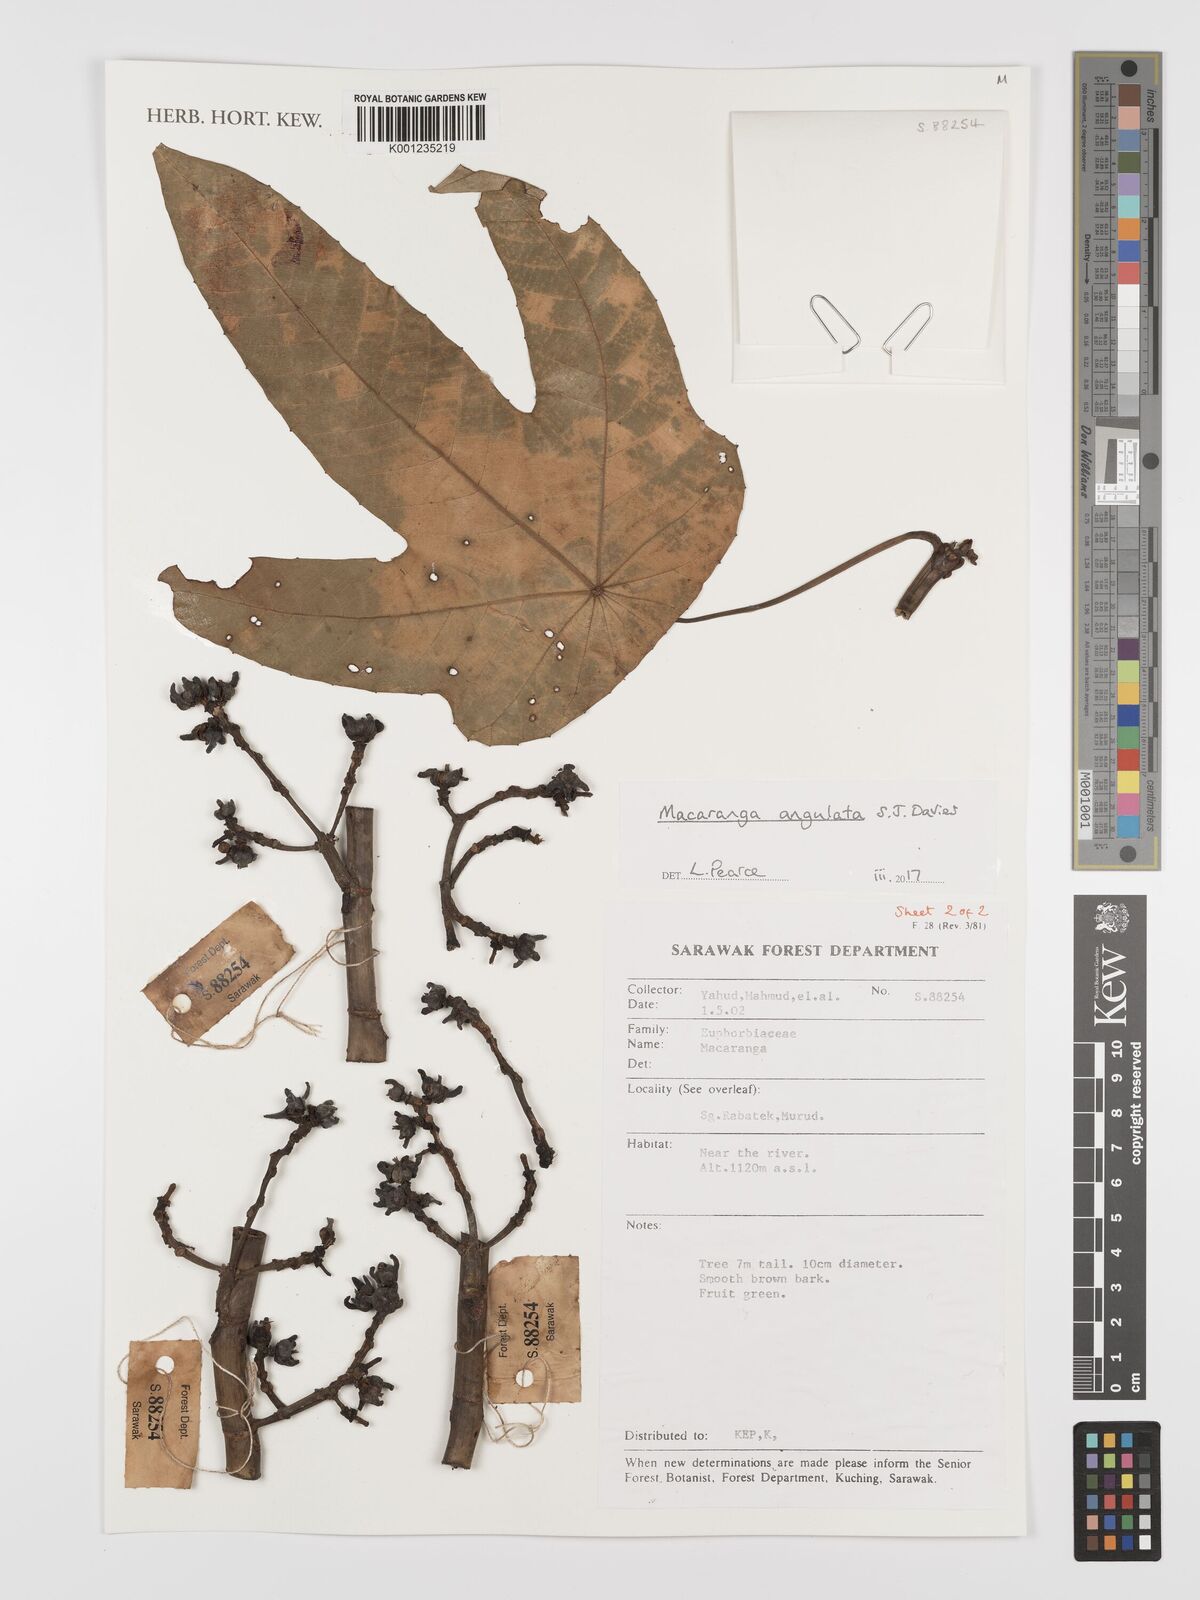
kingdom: Plantae
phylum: Tracheophyta
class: Magnoliopsida
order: Malpighiales
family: Euphorbiaceae
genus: Macaranga
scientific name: Macaranga angulata
